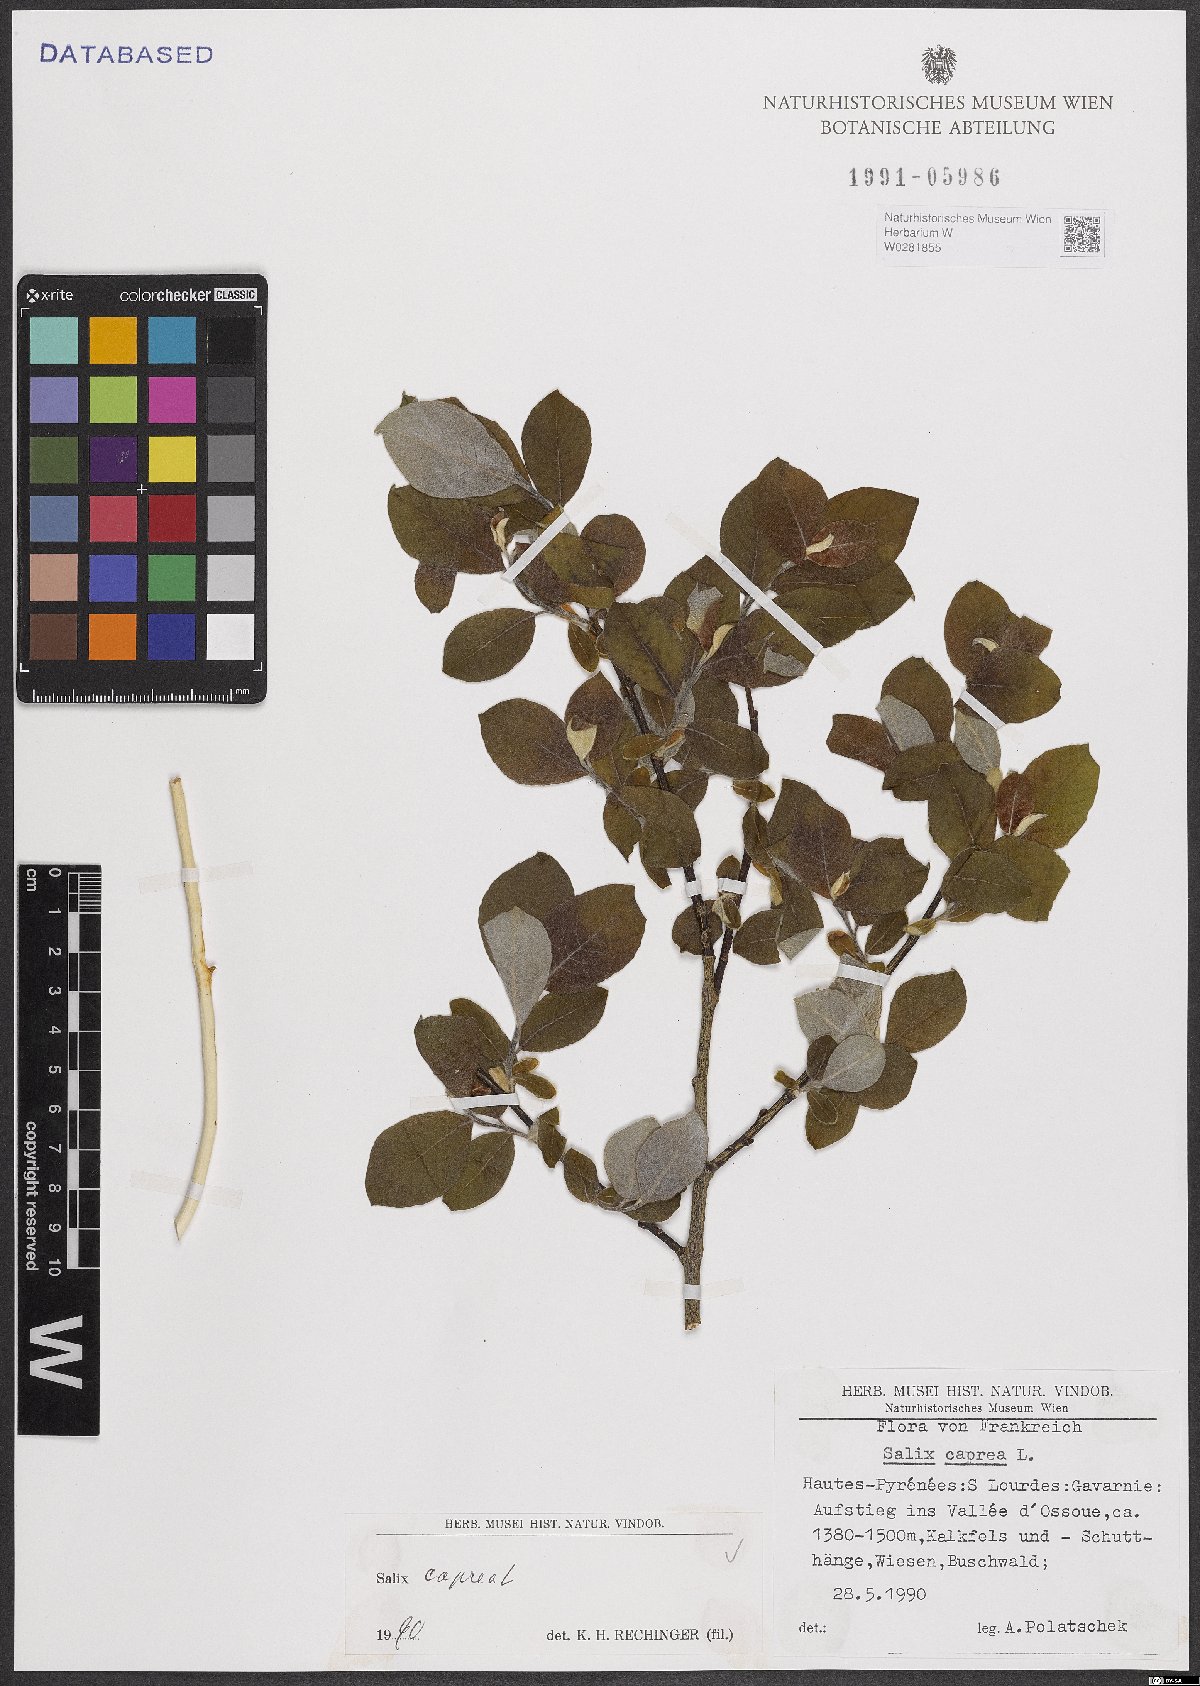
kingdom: Plantae
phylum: Tracheophyta
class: Magnoliopsida
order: Malpighiales
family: Salicaceae
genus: Salix
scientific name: Salix caprea
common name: Goat willow
